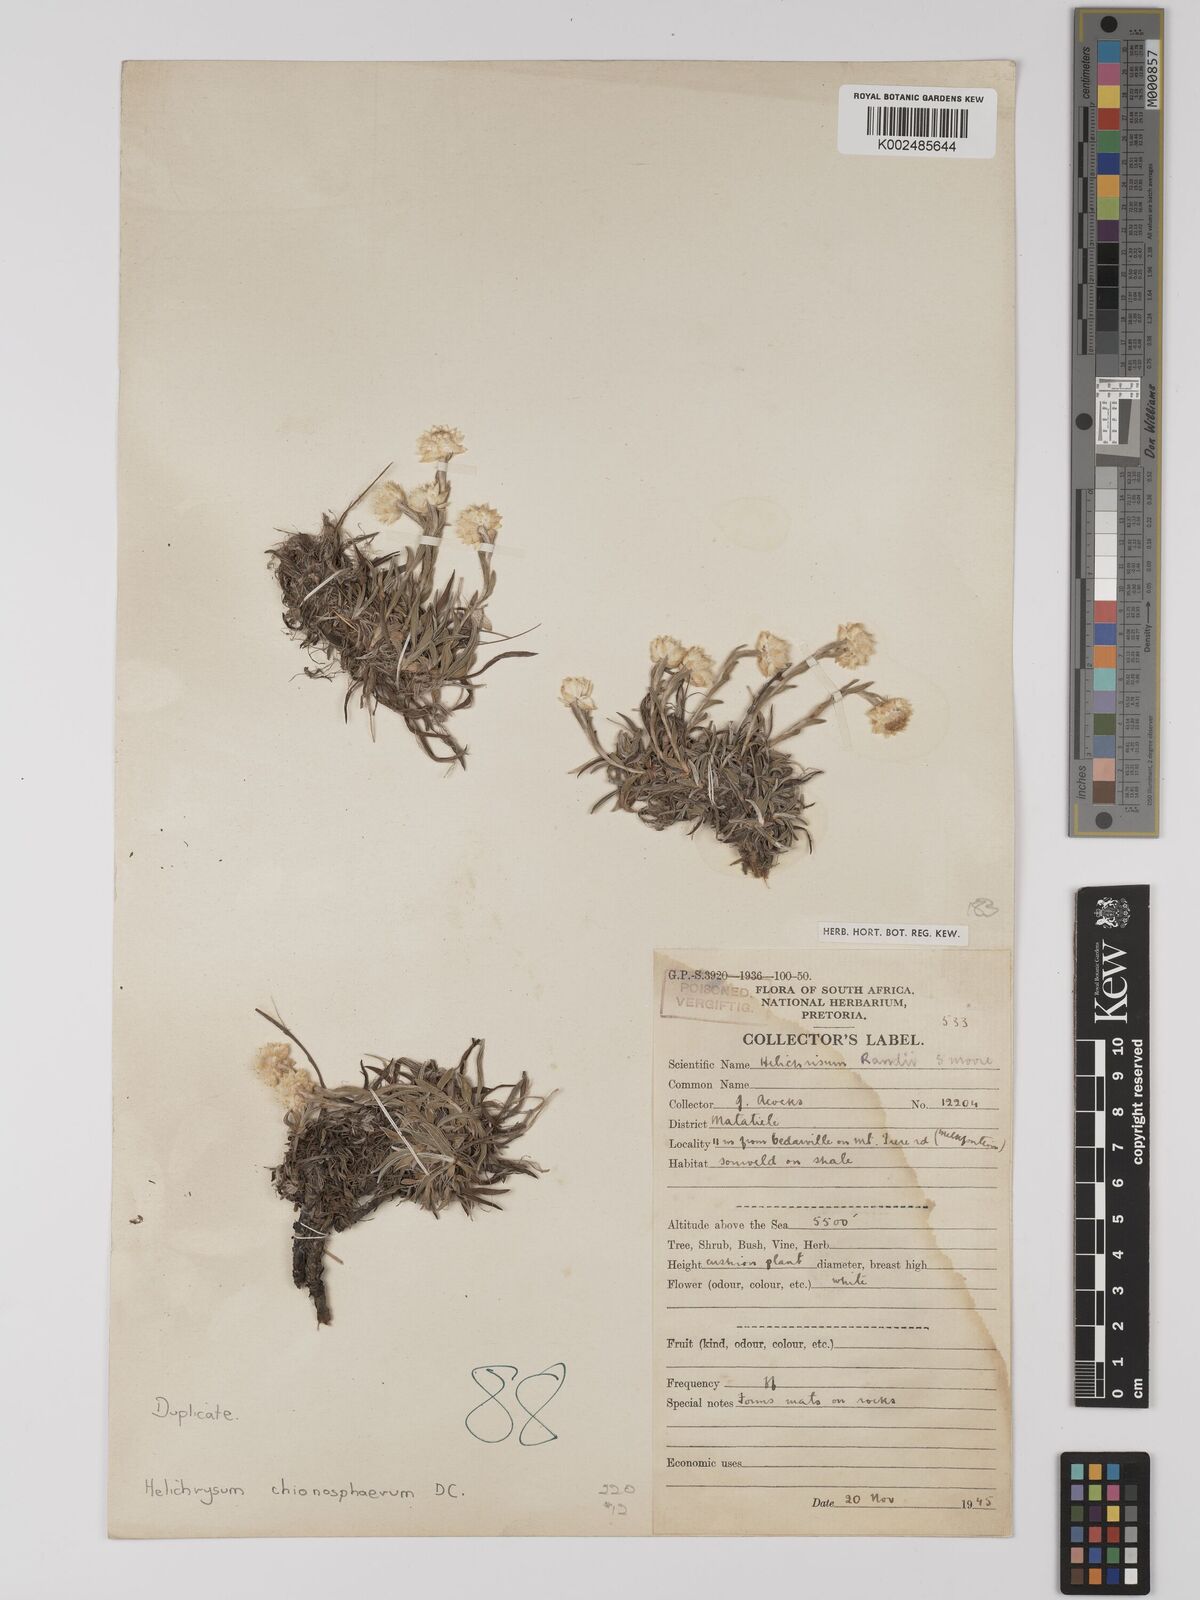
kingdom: Plantae
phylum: Tracheophyta
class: Magnoliopsida
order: Asterales
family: Asteraceae
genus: Helichrysum
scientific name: Helichrysum chionosphaerum
